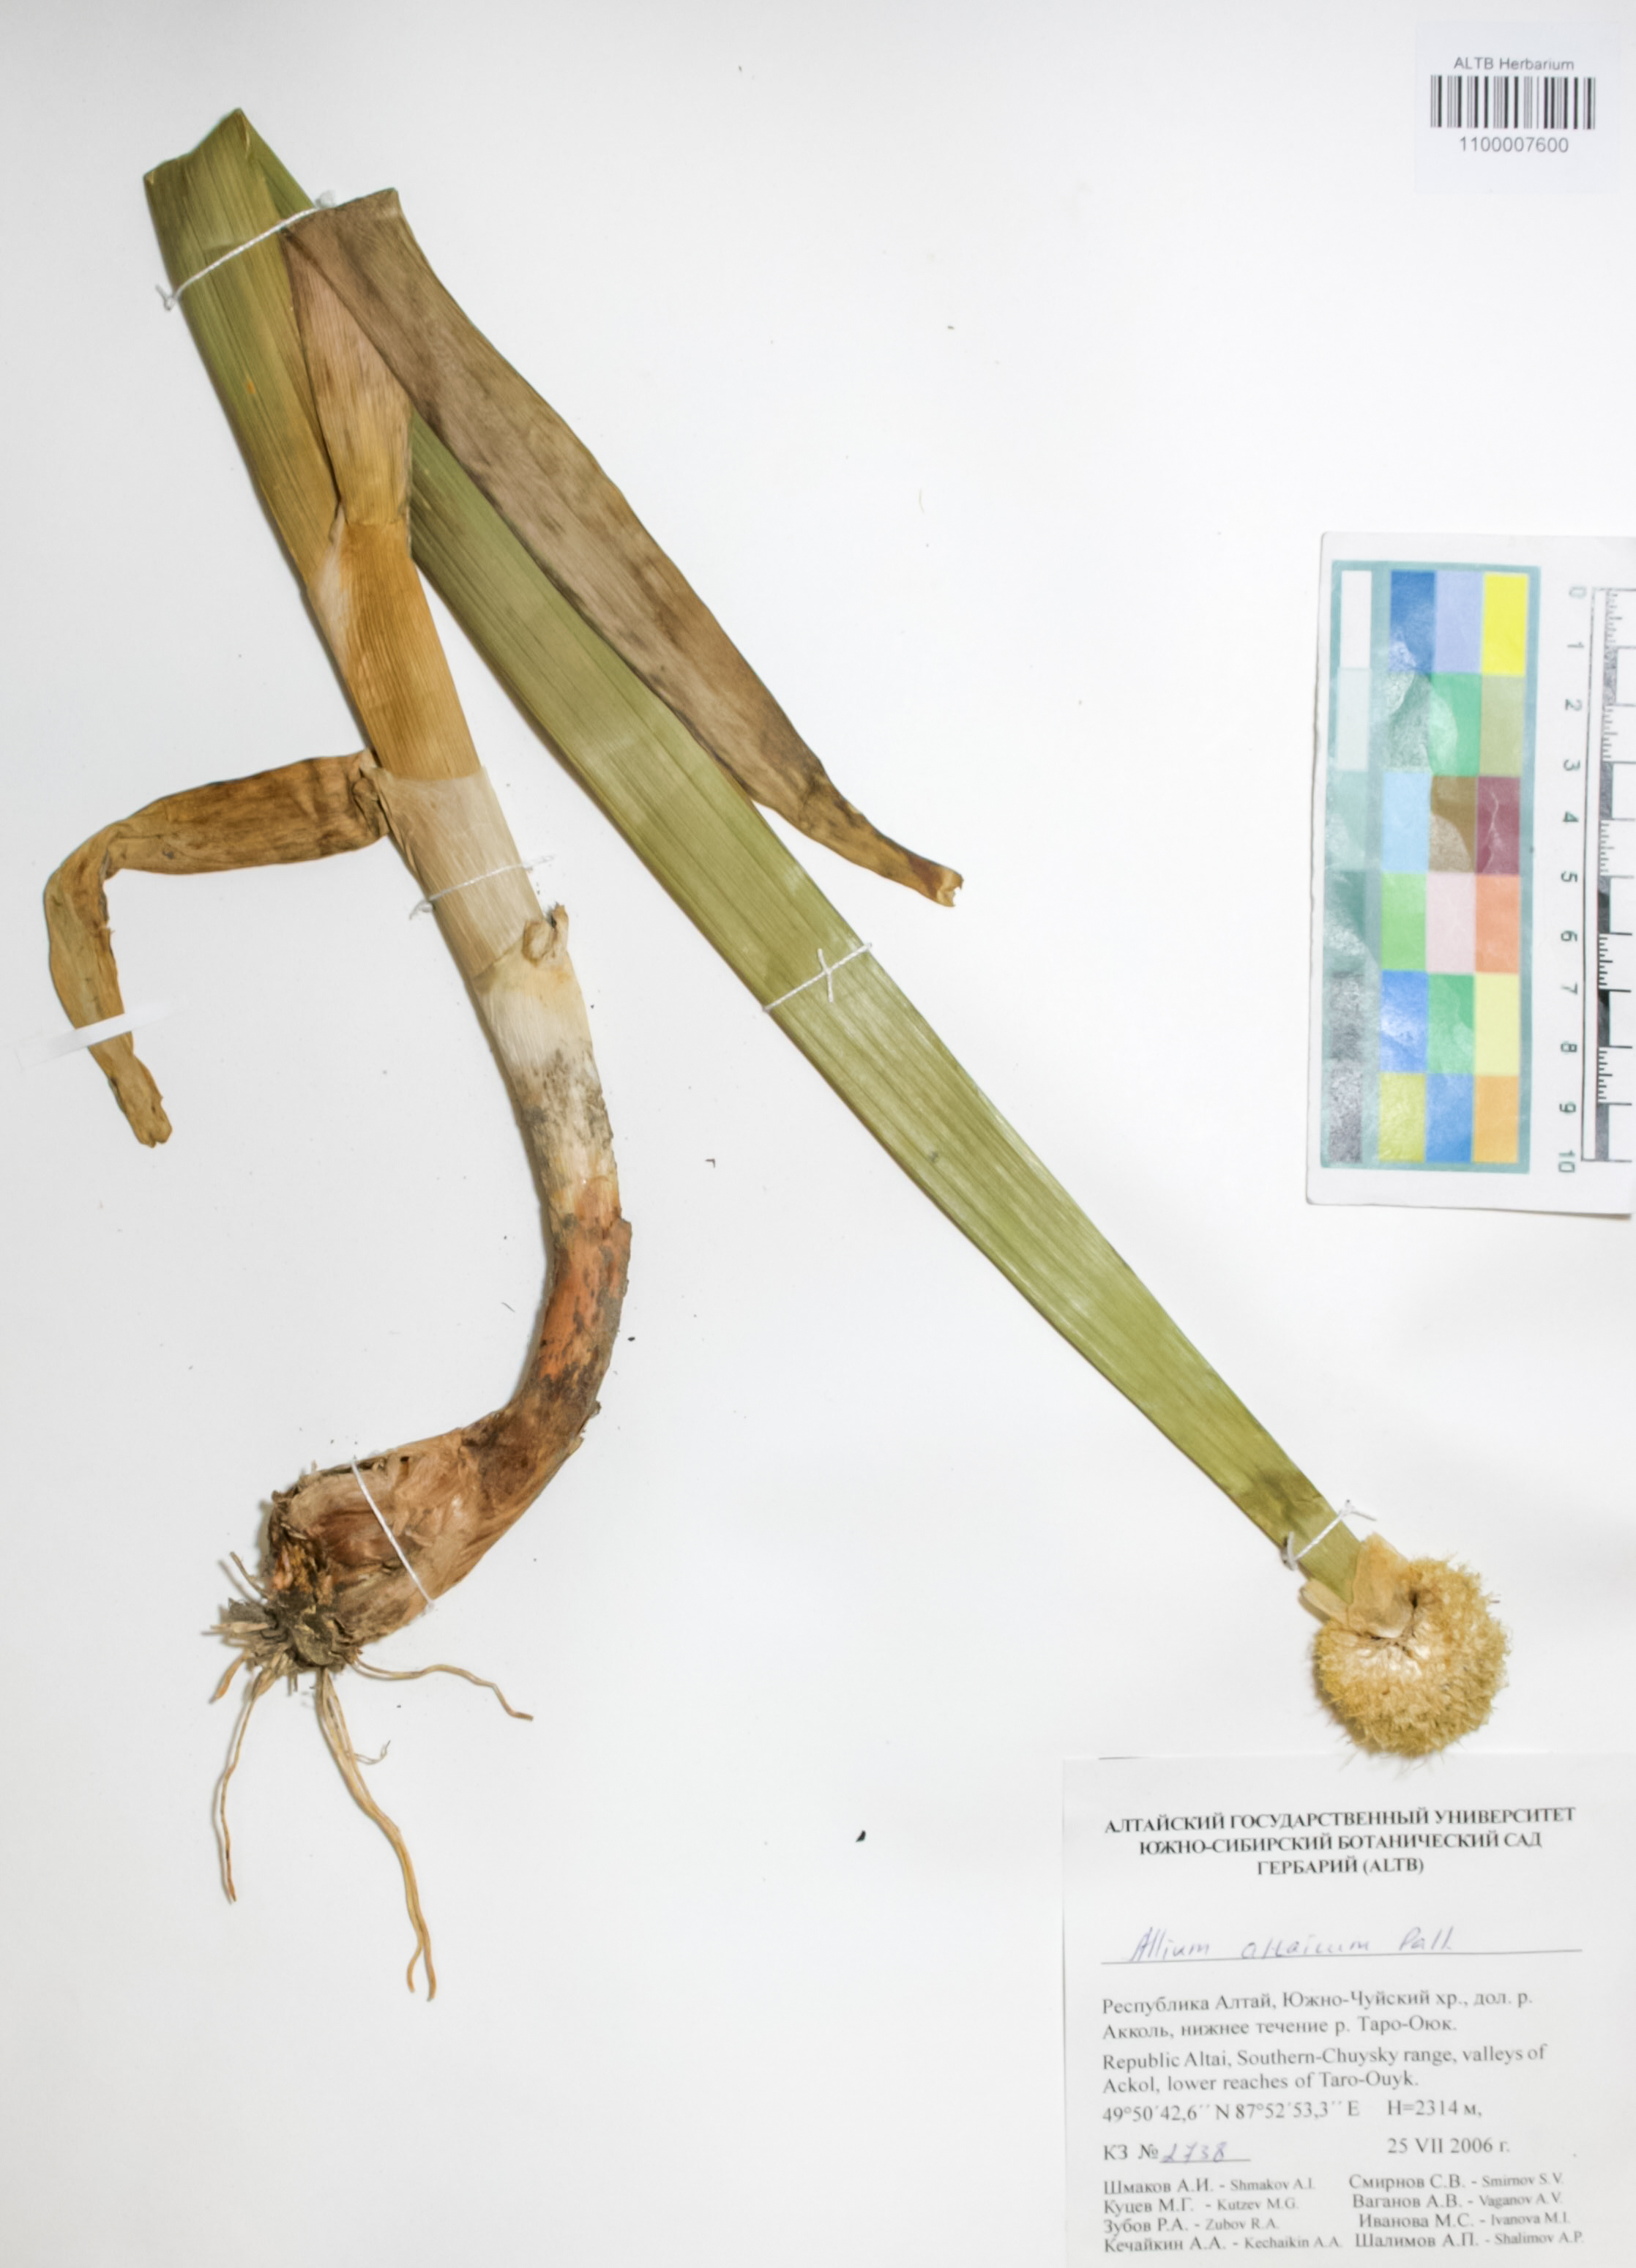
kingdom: Plantae
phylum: Tracheophyta
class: Liliopsida
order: Asparagales
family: Amaryllidaceae
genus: Allium
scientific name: Allium altaicum
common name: Altai onion
